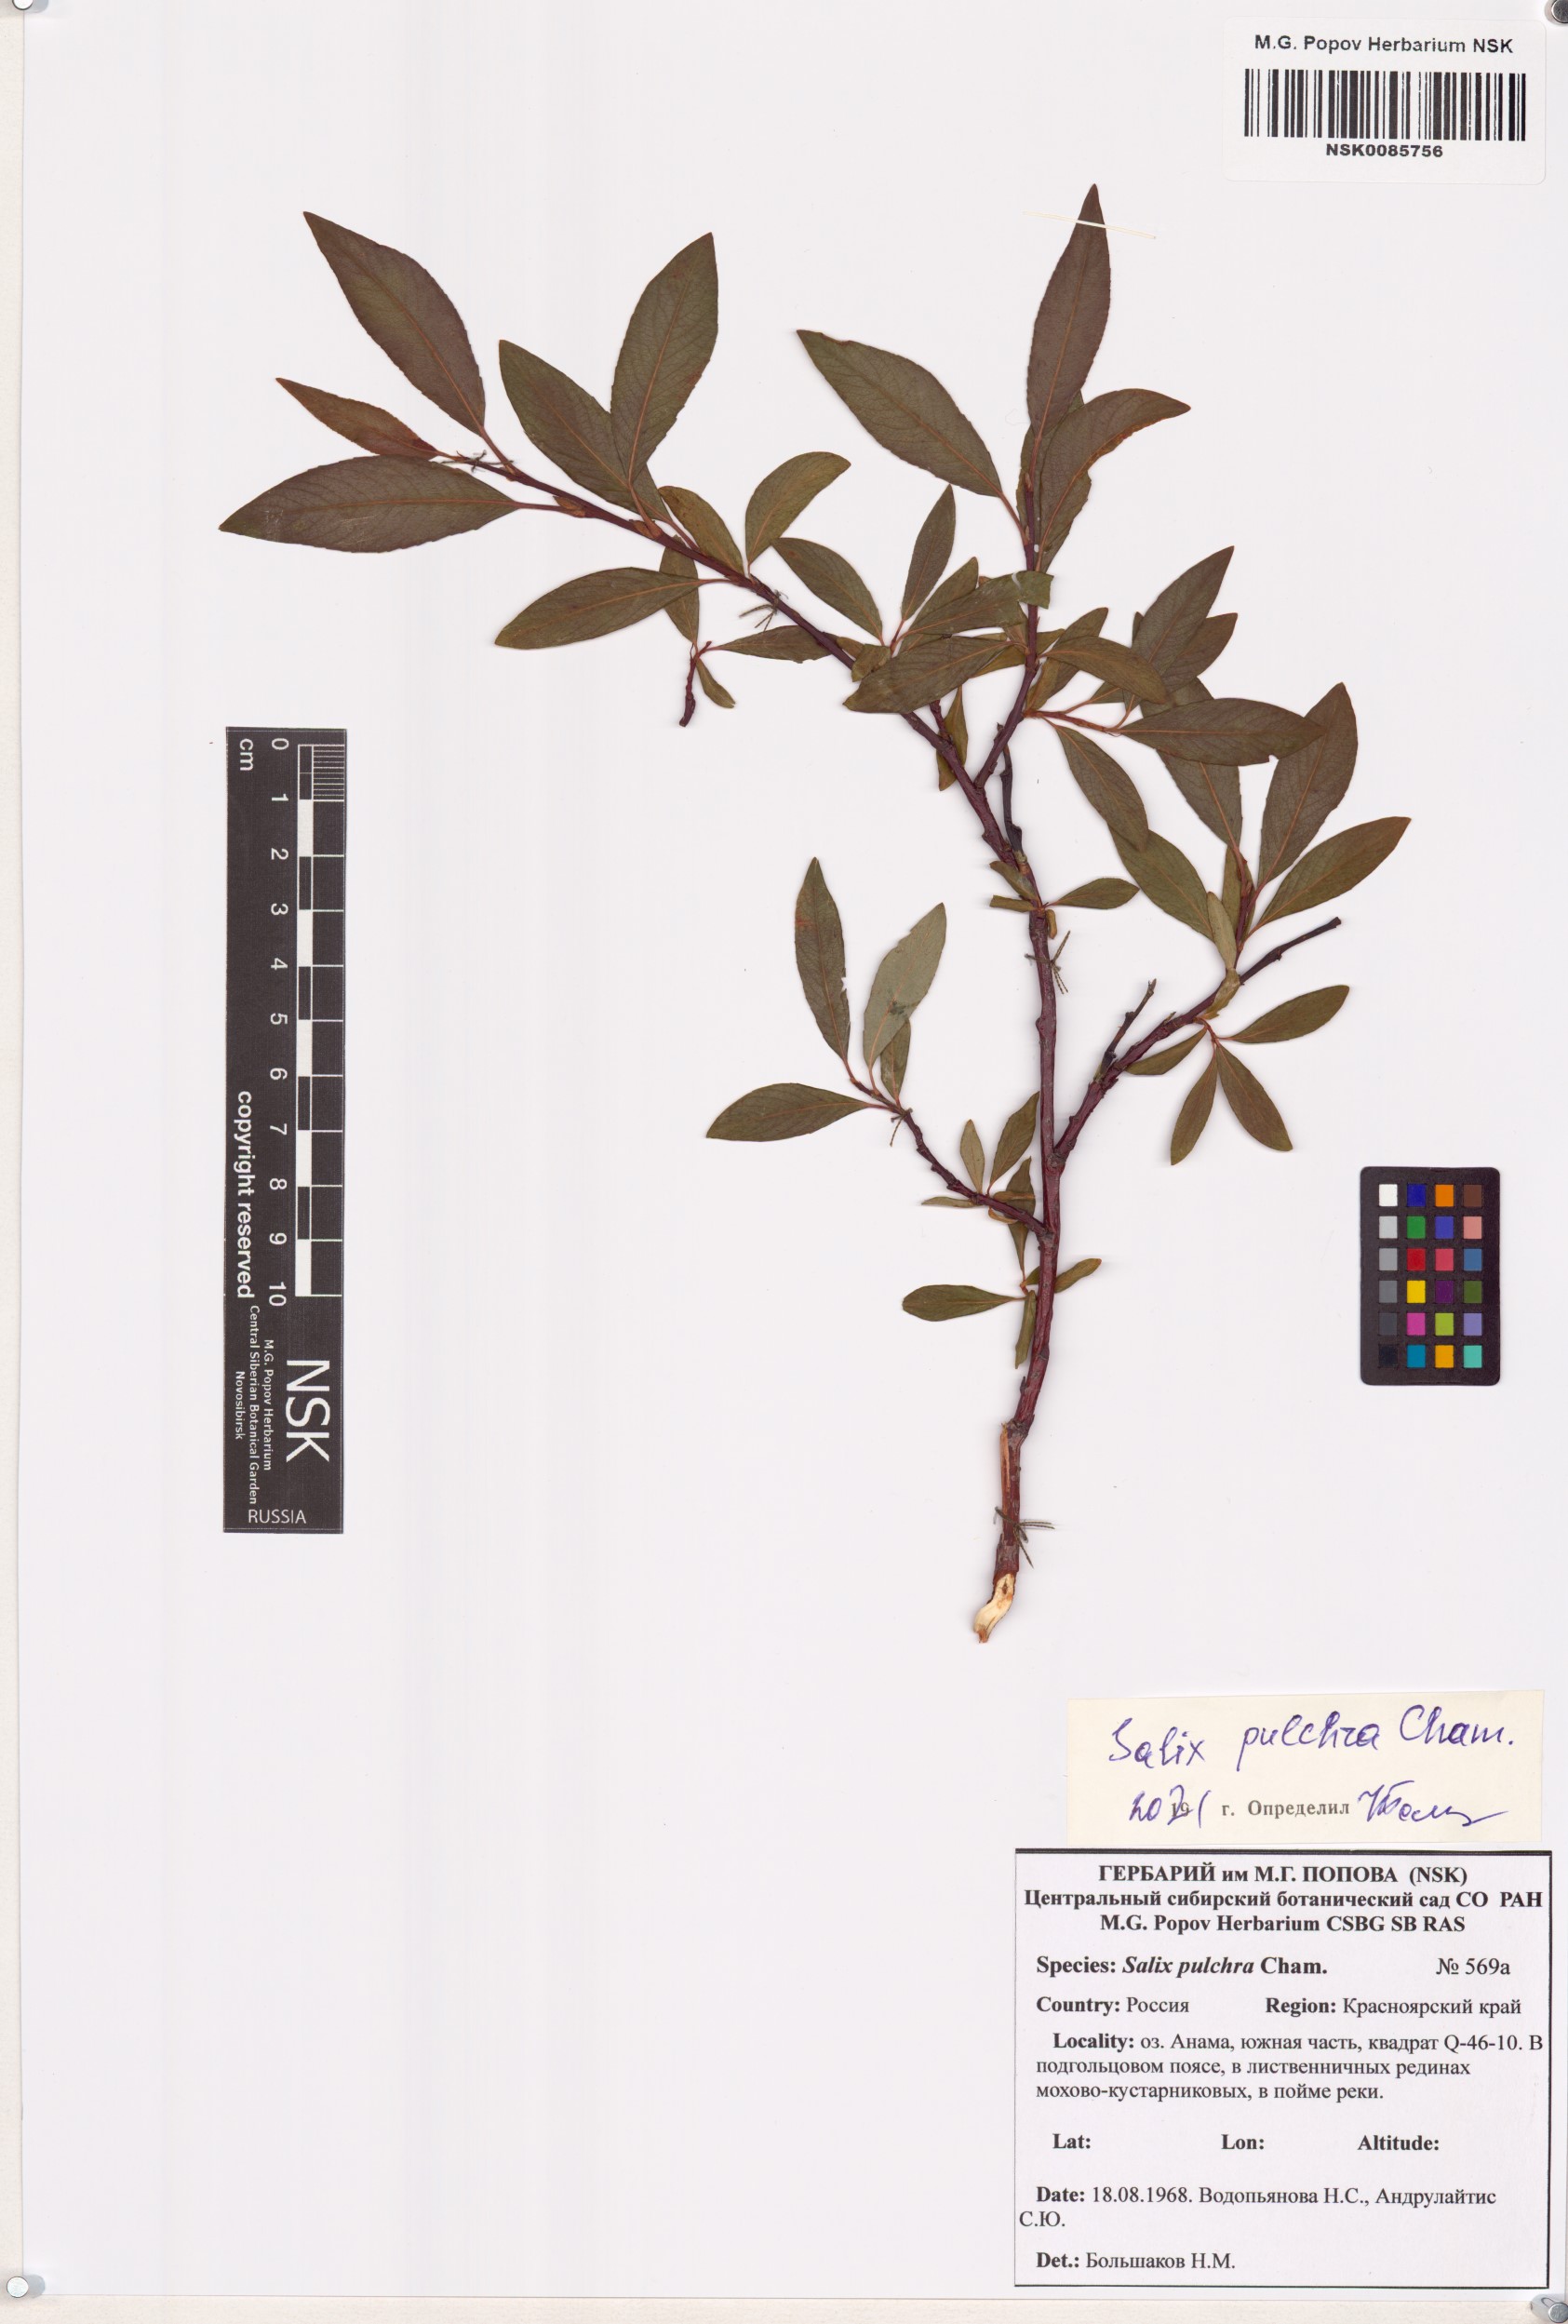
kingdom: Plantae
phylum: Tracheophyta
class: Magnoliopsida
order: Malpighiales
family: Salicaceae
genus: Salix
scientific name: Salix pulchra
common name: Diamond-leaved willow
